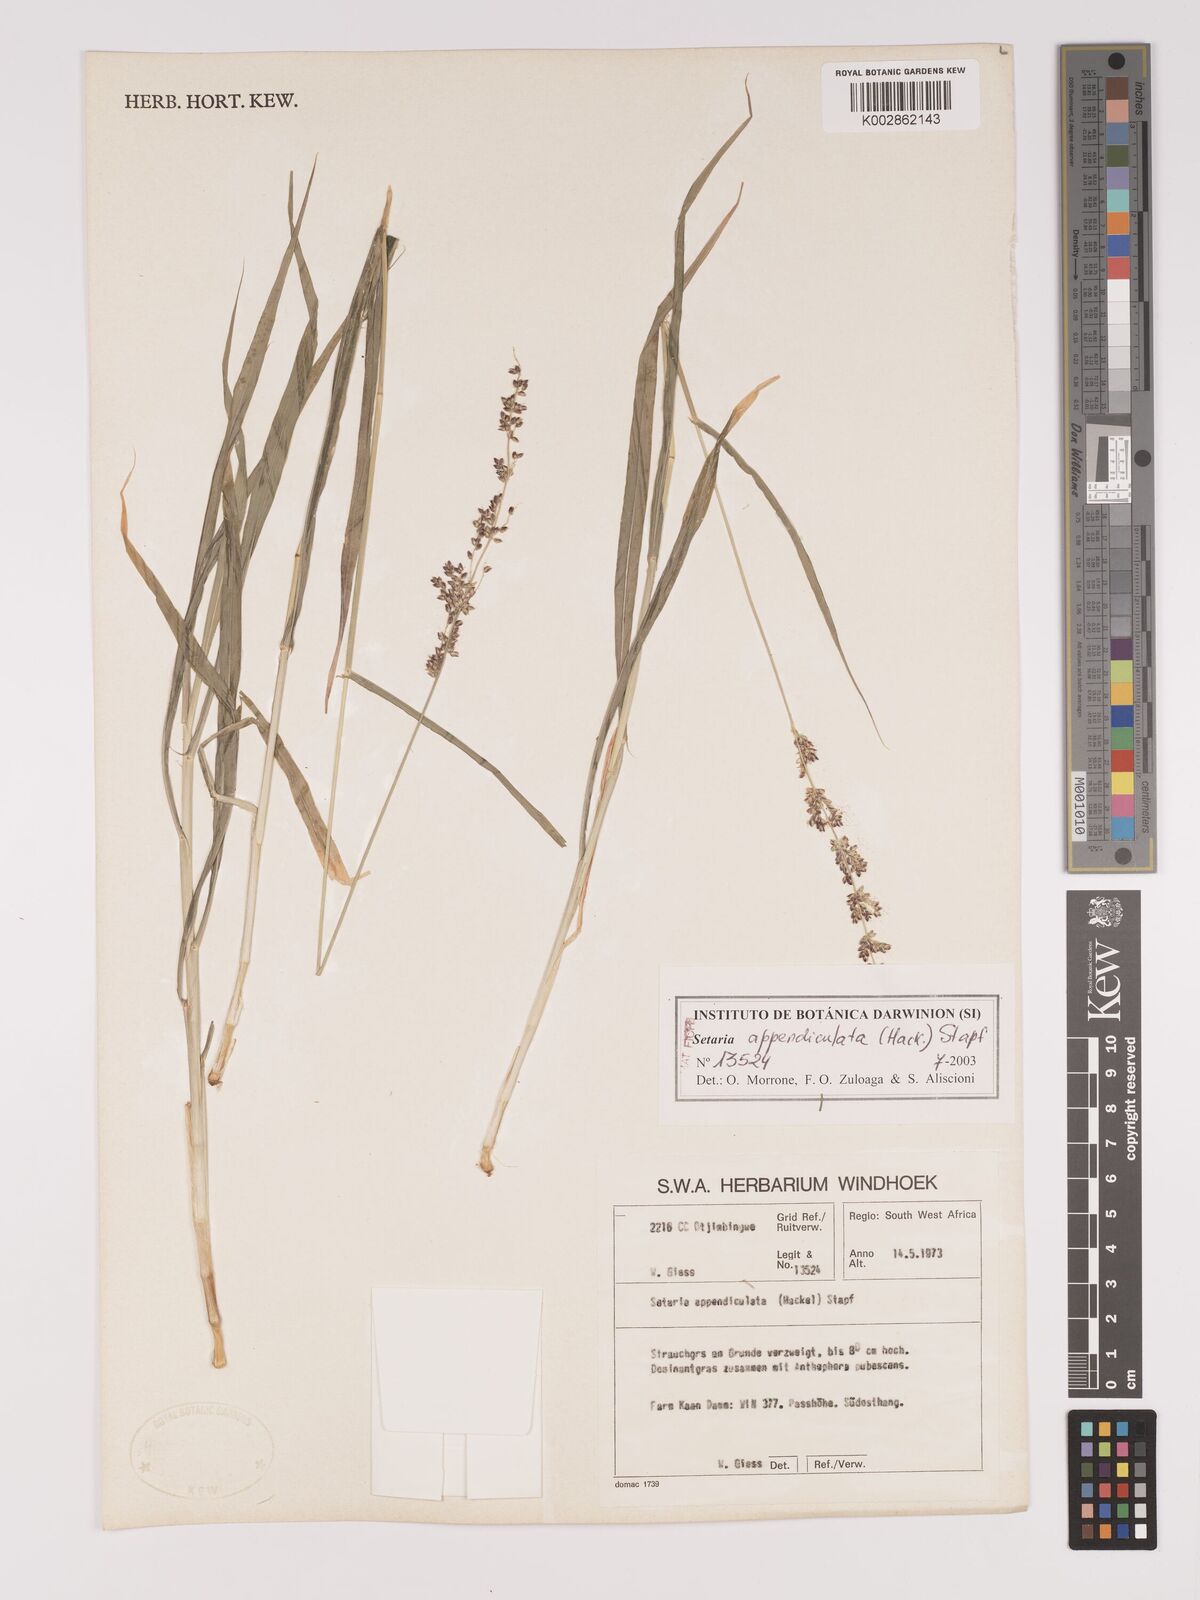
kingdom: Plantae
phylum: Tracheophyta
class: Liliopsida
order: Poales
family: Poaceae
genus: Setaria
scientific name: Setaria appendiculata
